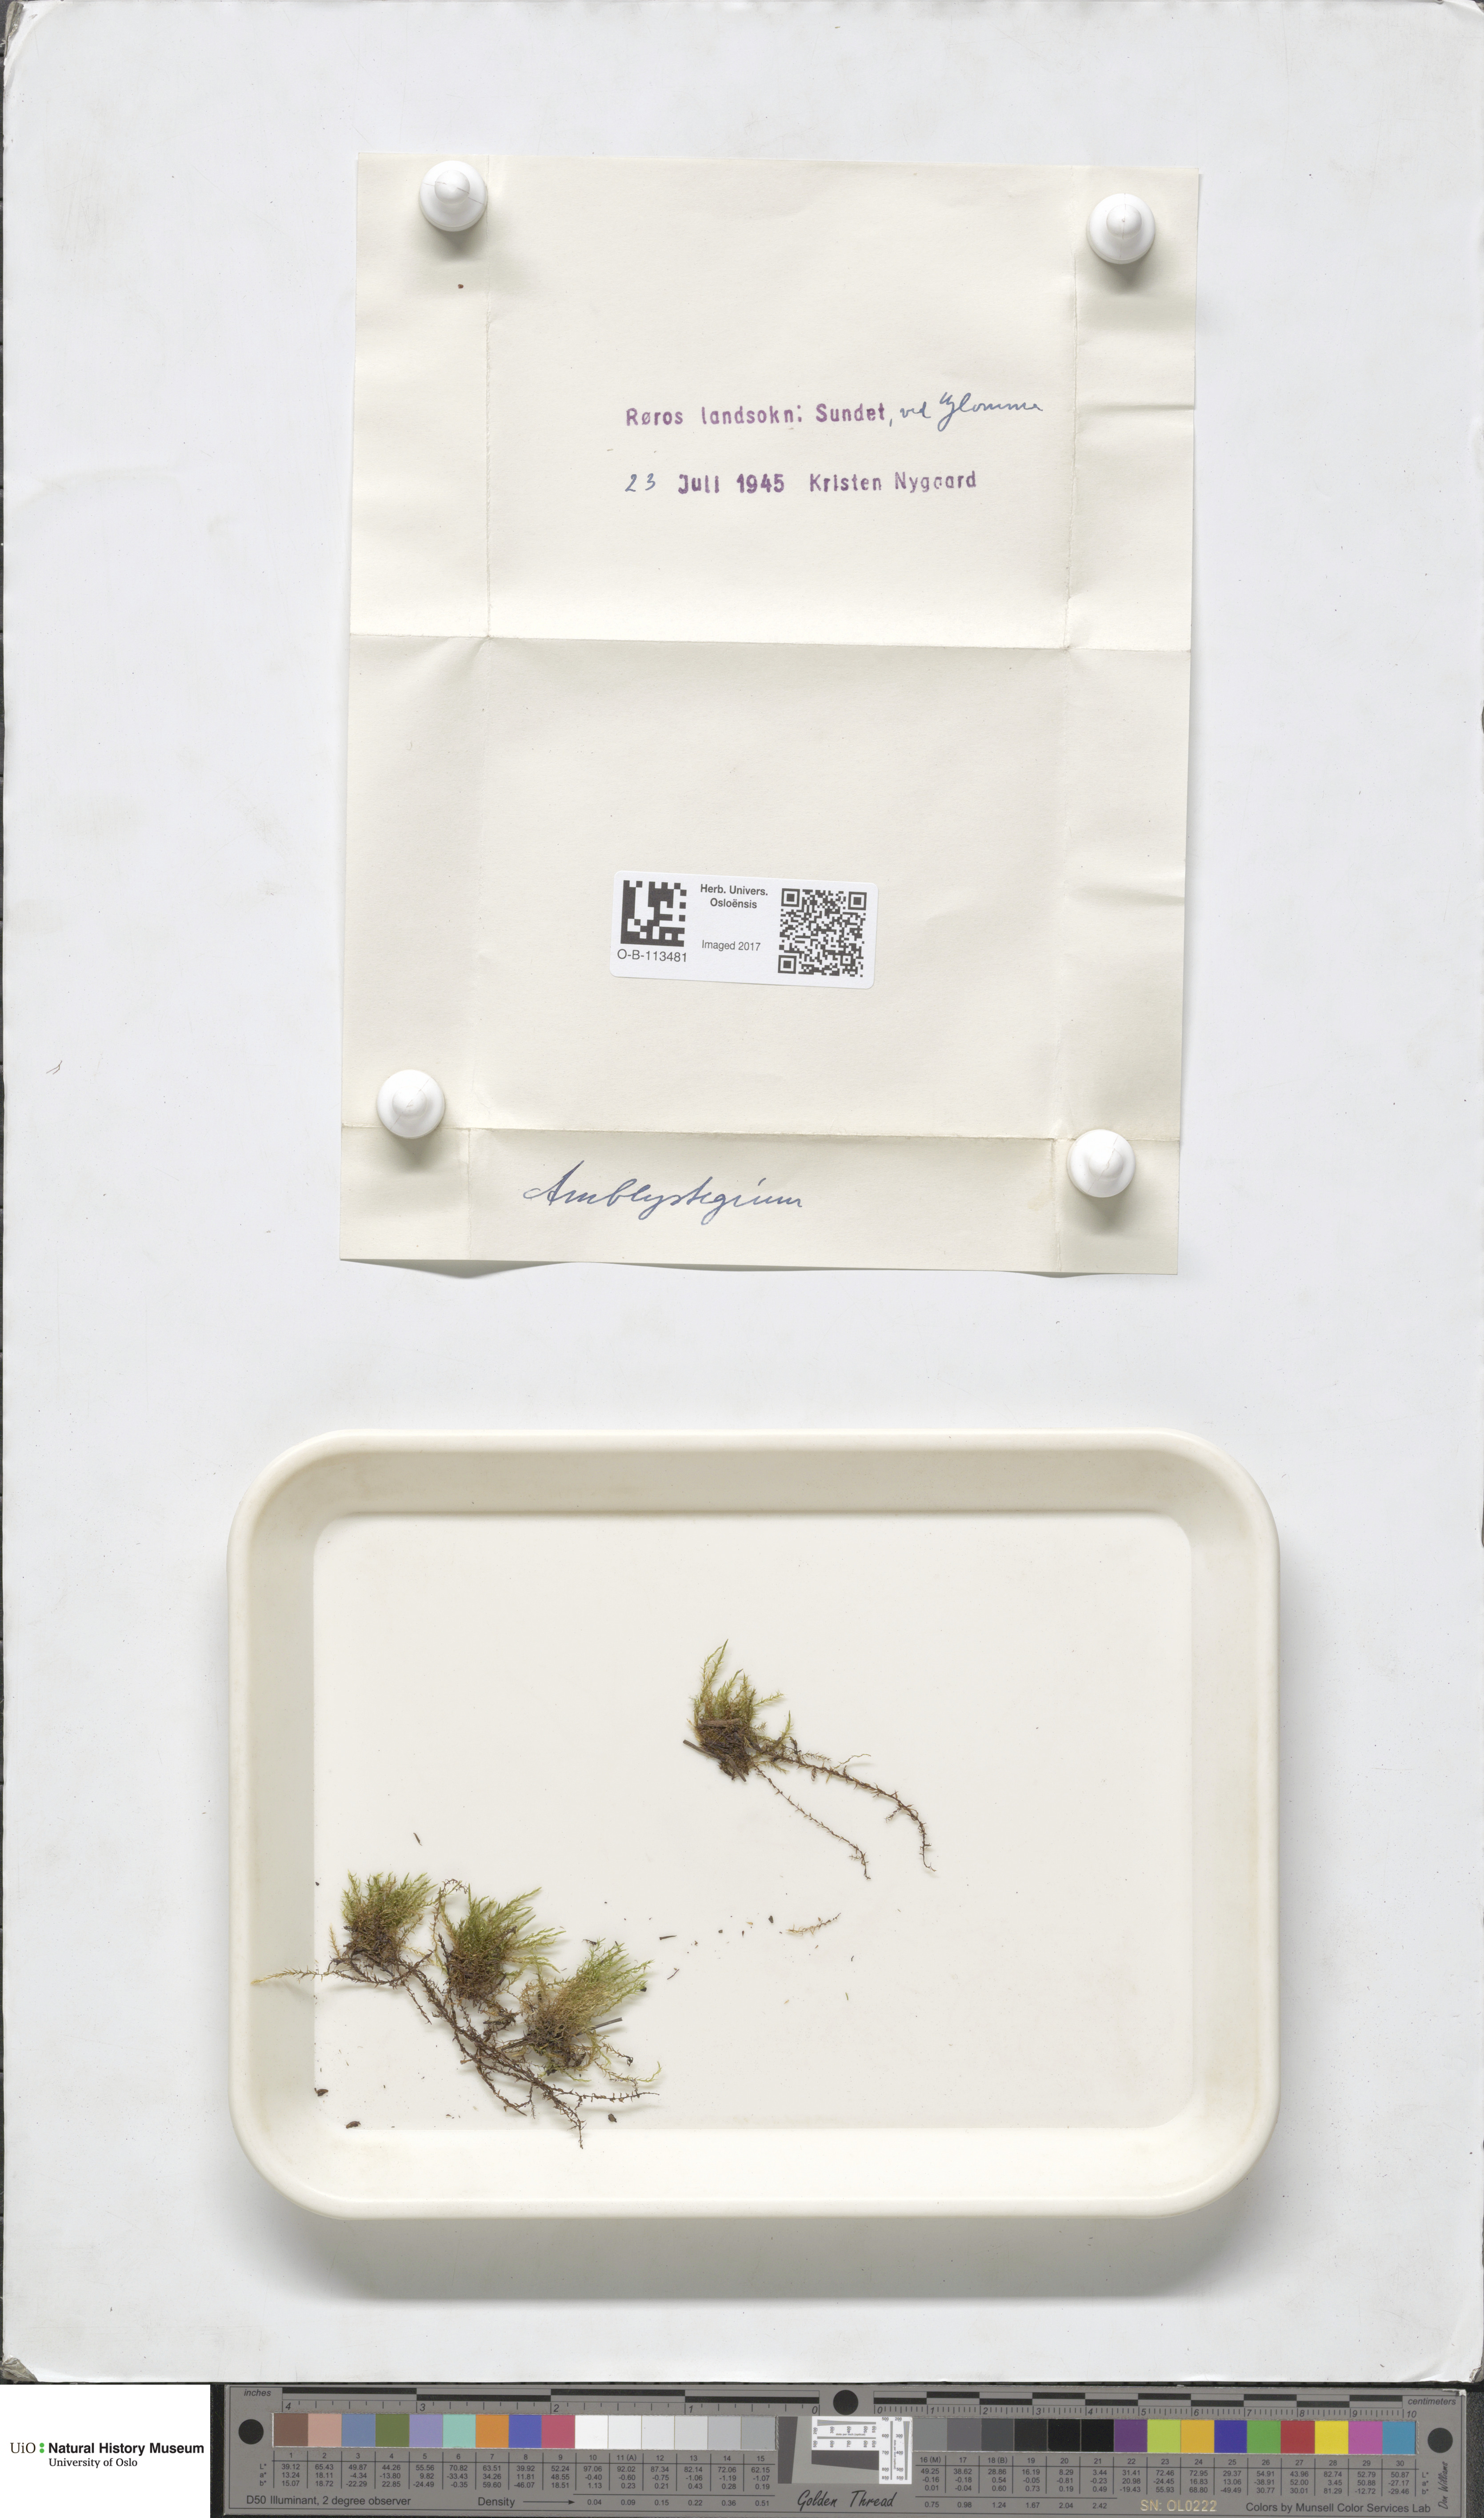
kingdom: Plantae
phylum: Bryophyta
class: Bryopsida
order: Hypnales
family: Amblystegiaceae
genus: Amblystegium
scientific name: Amblystegium
